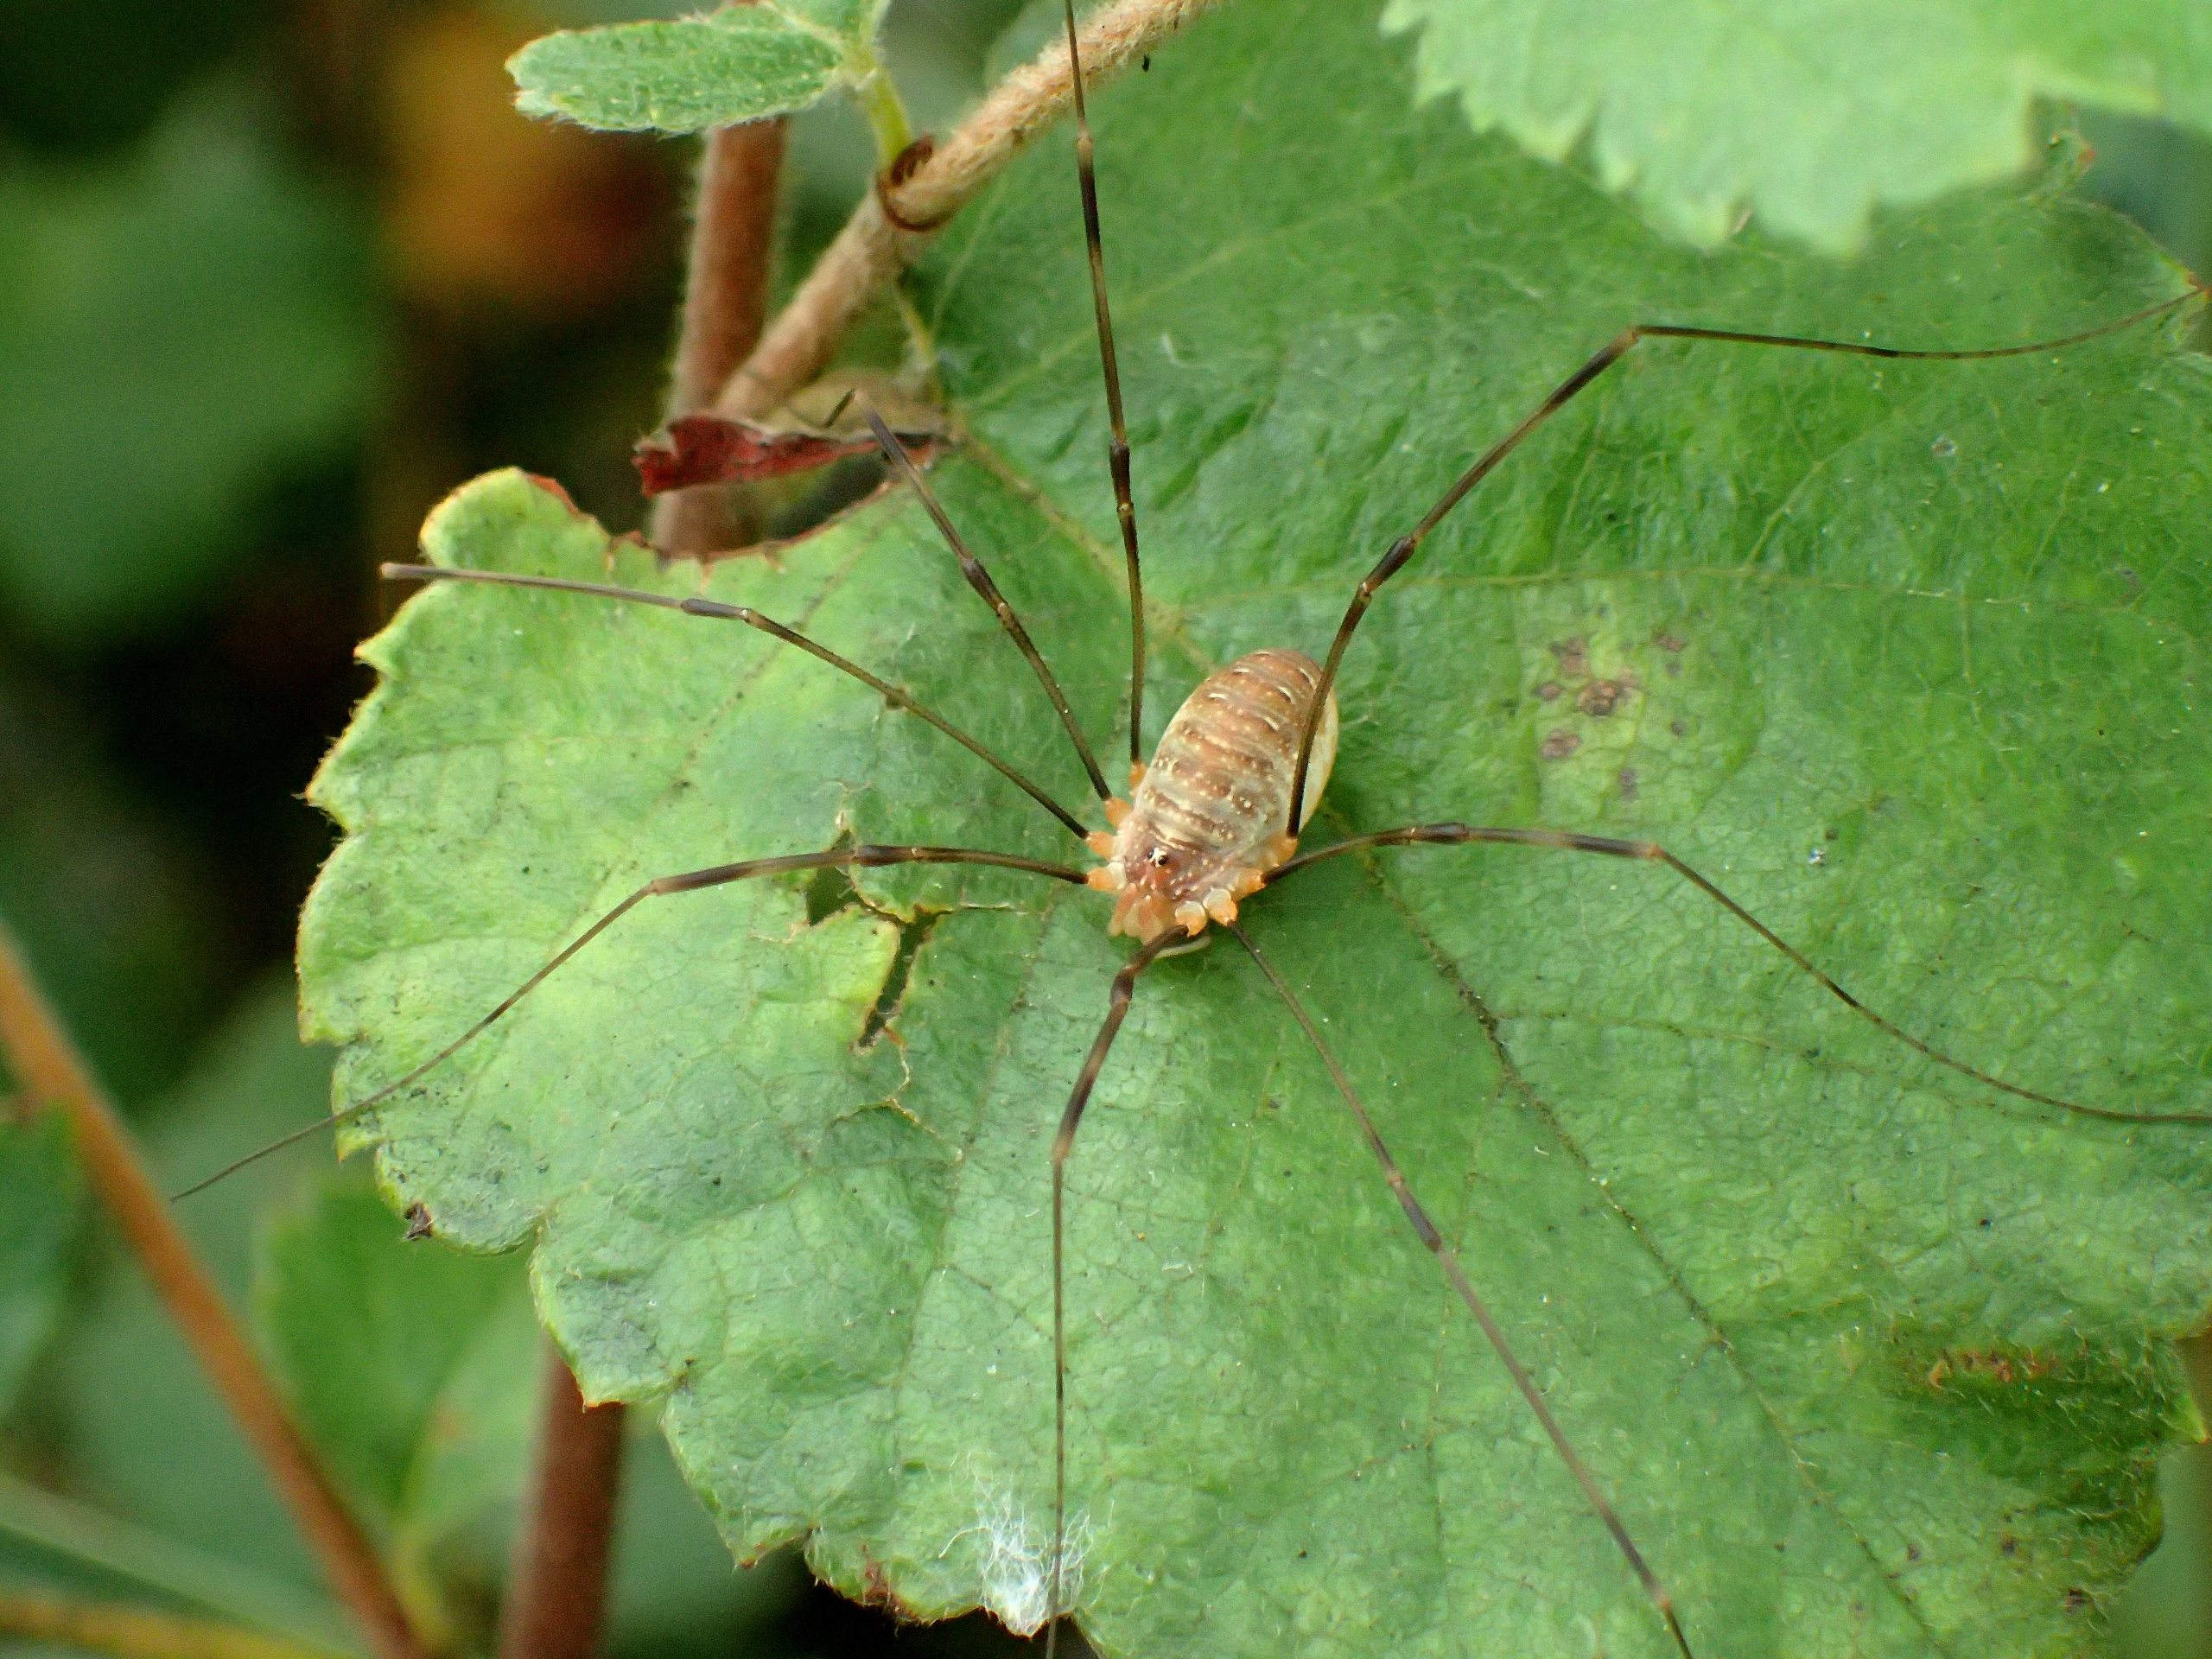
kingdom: Animalia
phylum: Arthropoda
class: Arachnida
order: Opiliones
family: Phalangiidae
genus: Opilio
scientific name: Opilio canestrinii
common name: Orange vægmejer
